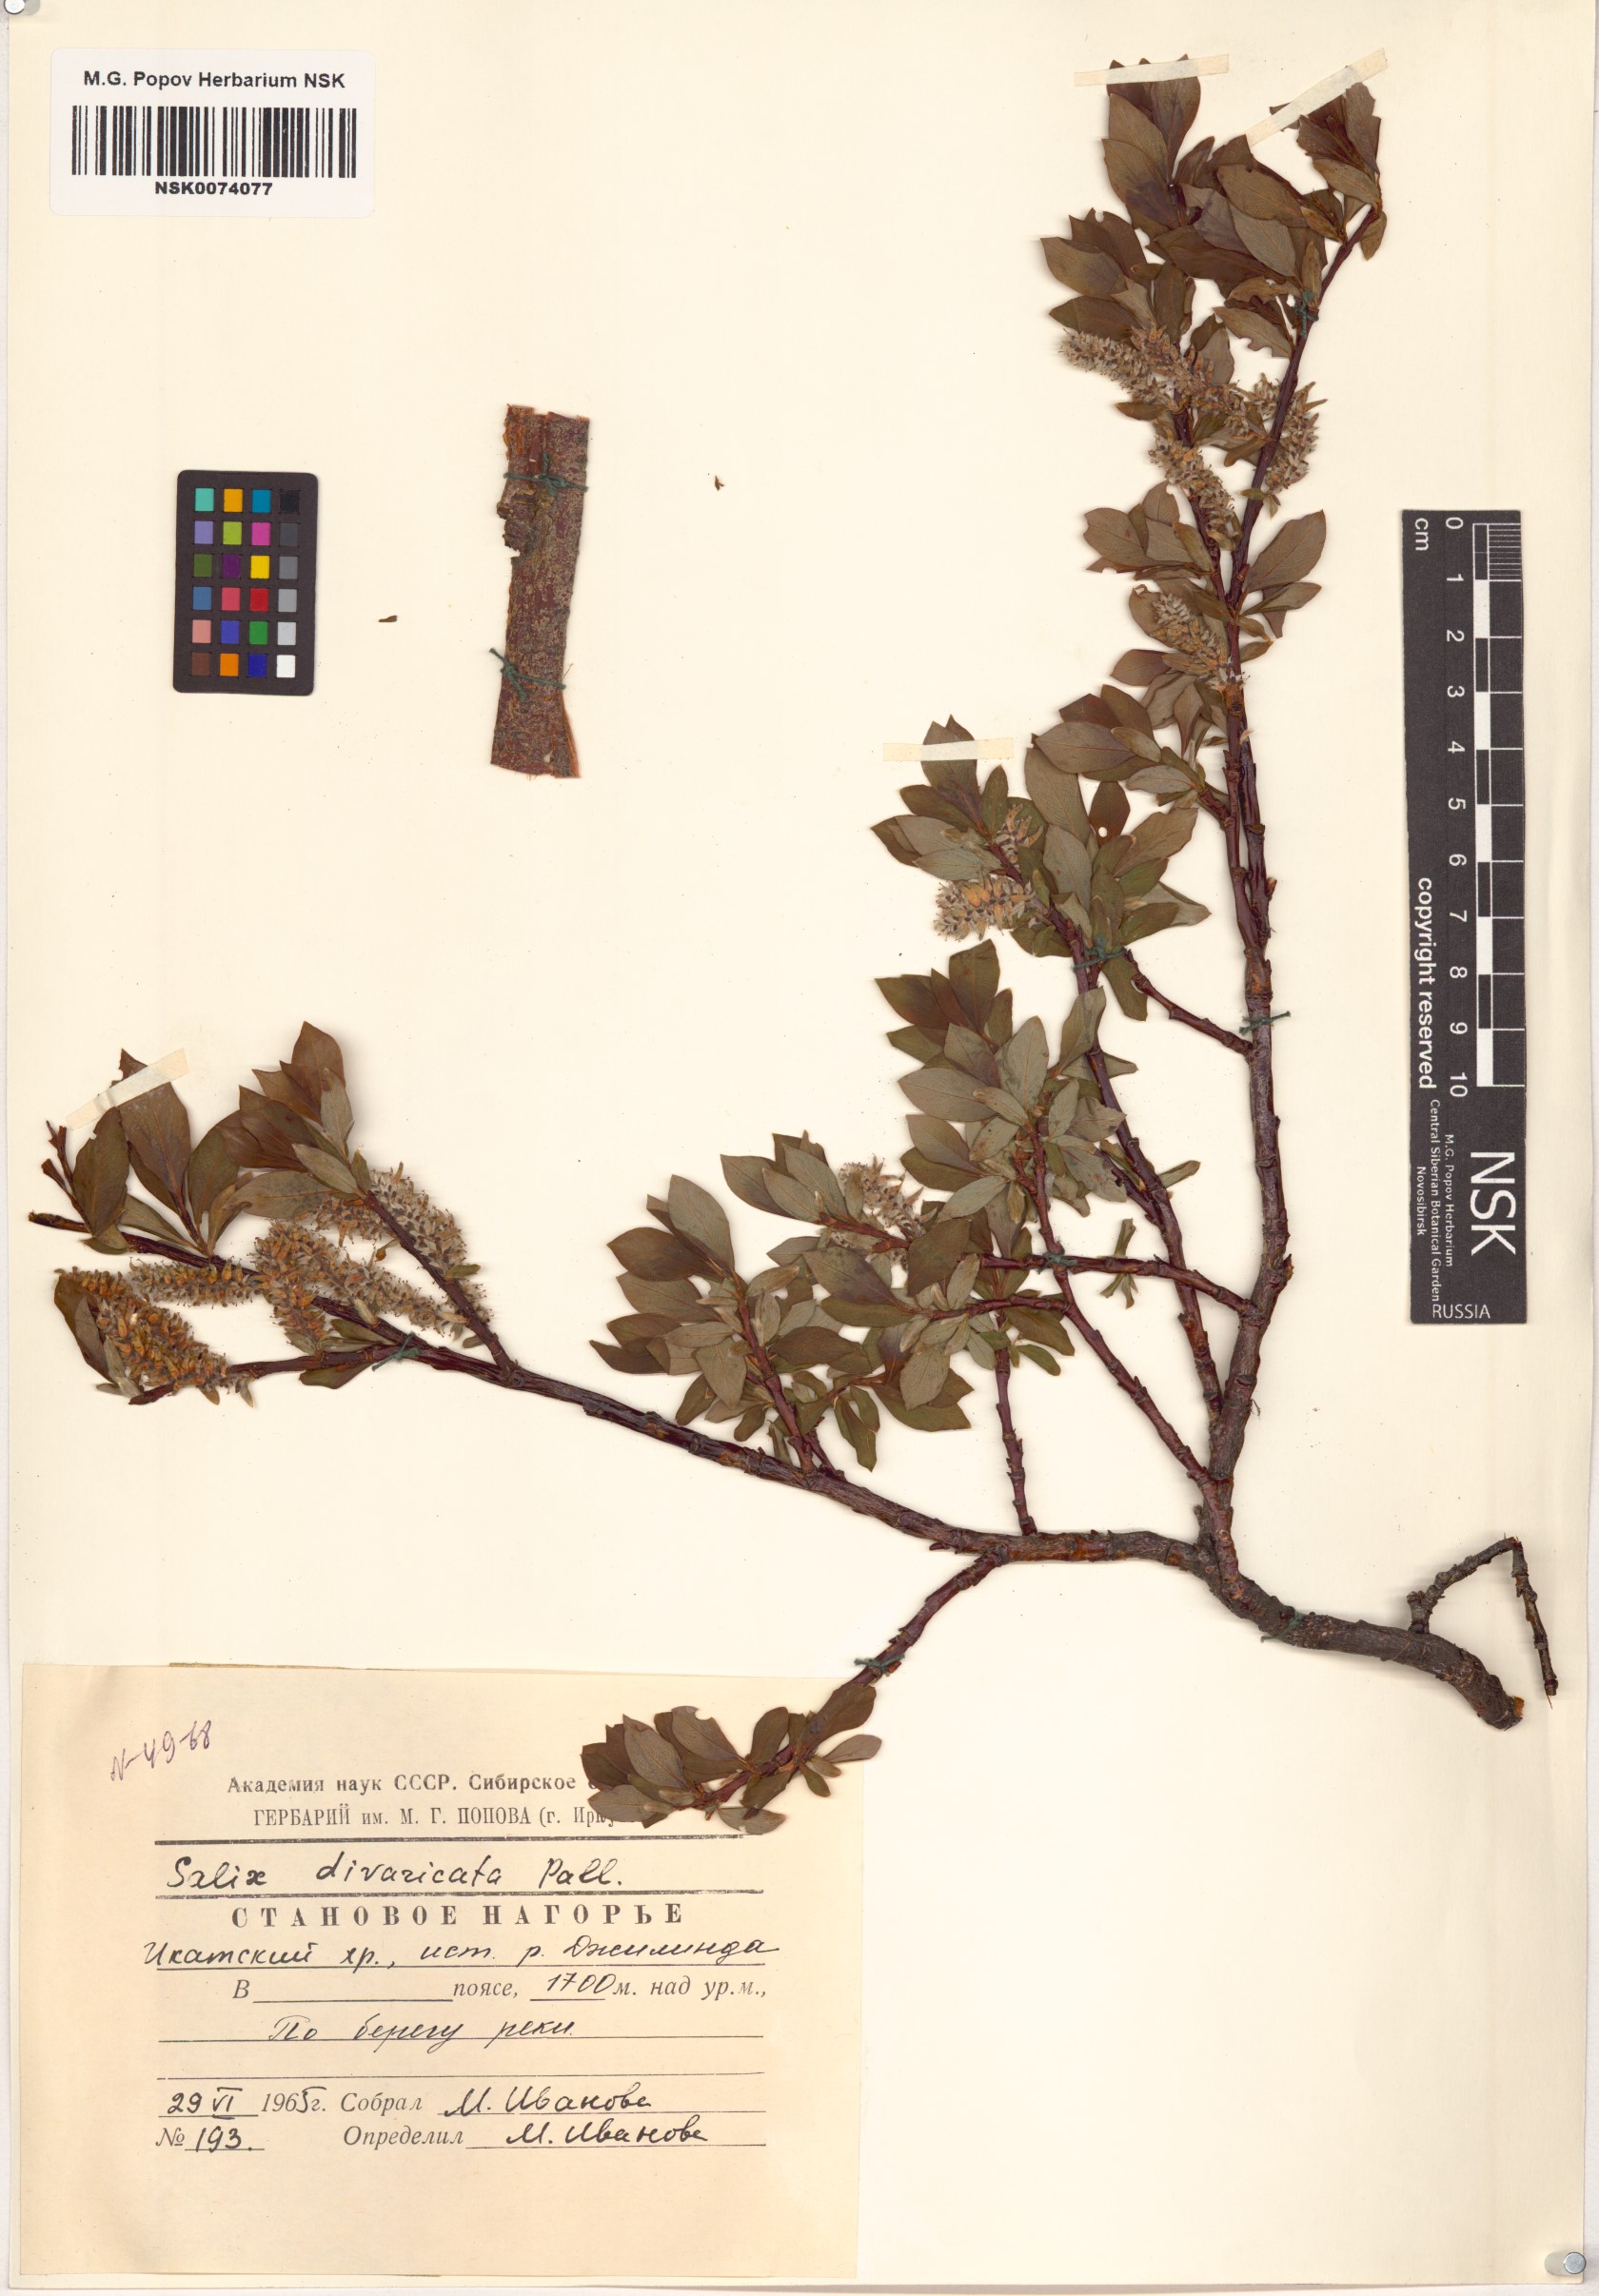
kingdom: Plantae
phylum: Tracheophyta
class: Magnoliopsida
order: Malpighiales
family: Salicaceae
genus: Salix
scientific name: Salix divaricata
